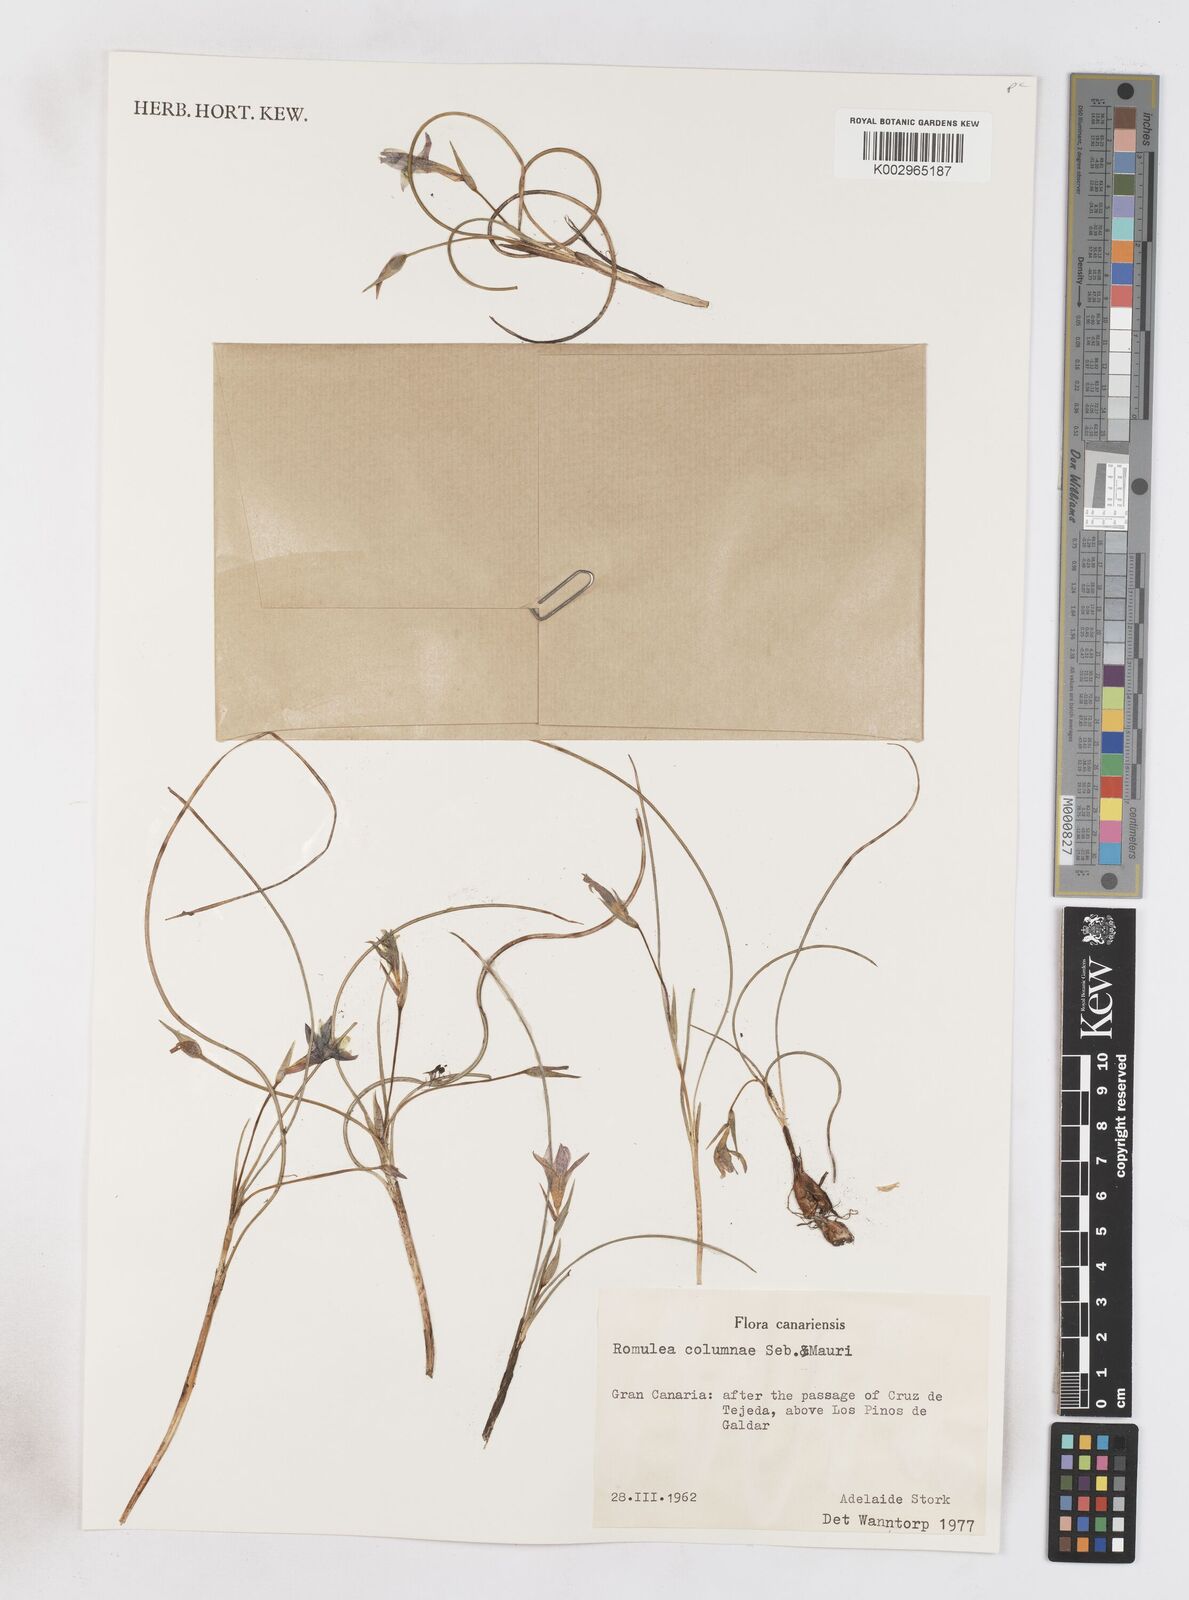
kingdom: Plantae
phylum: Tracheophyta
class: Liliopsida
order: Asparagales
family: Iridaceae
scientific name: Iridaceae
